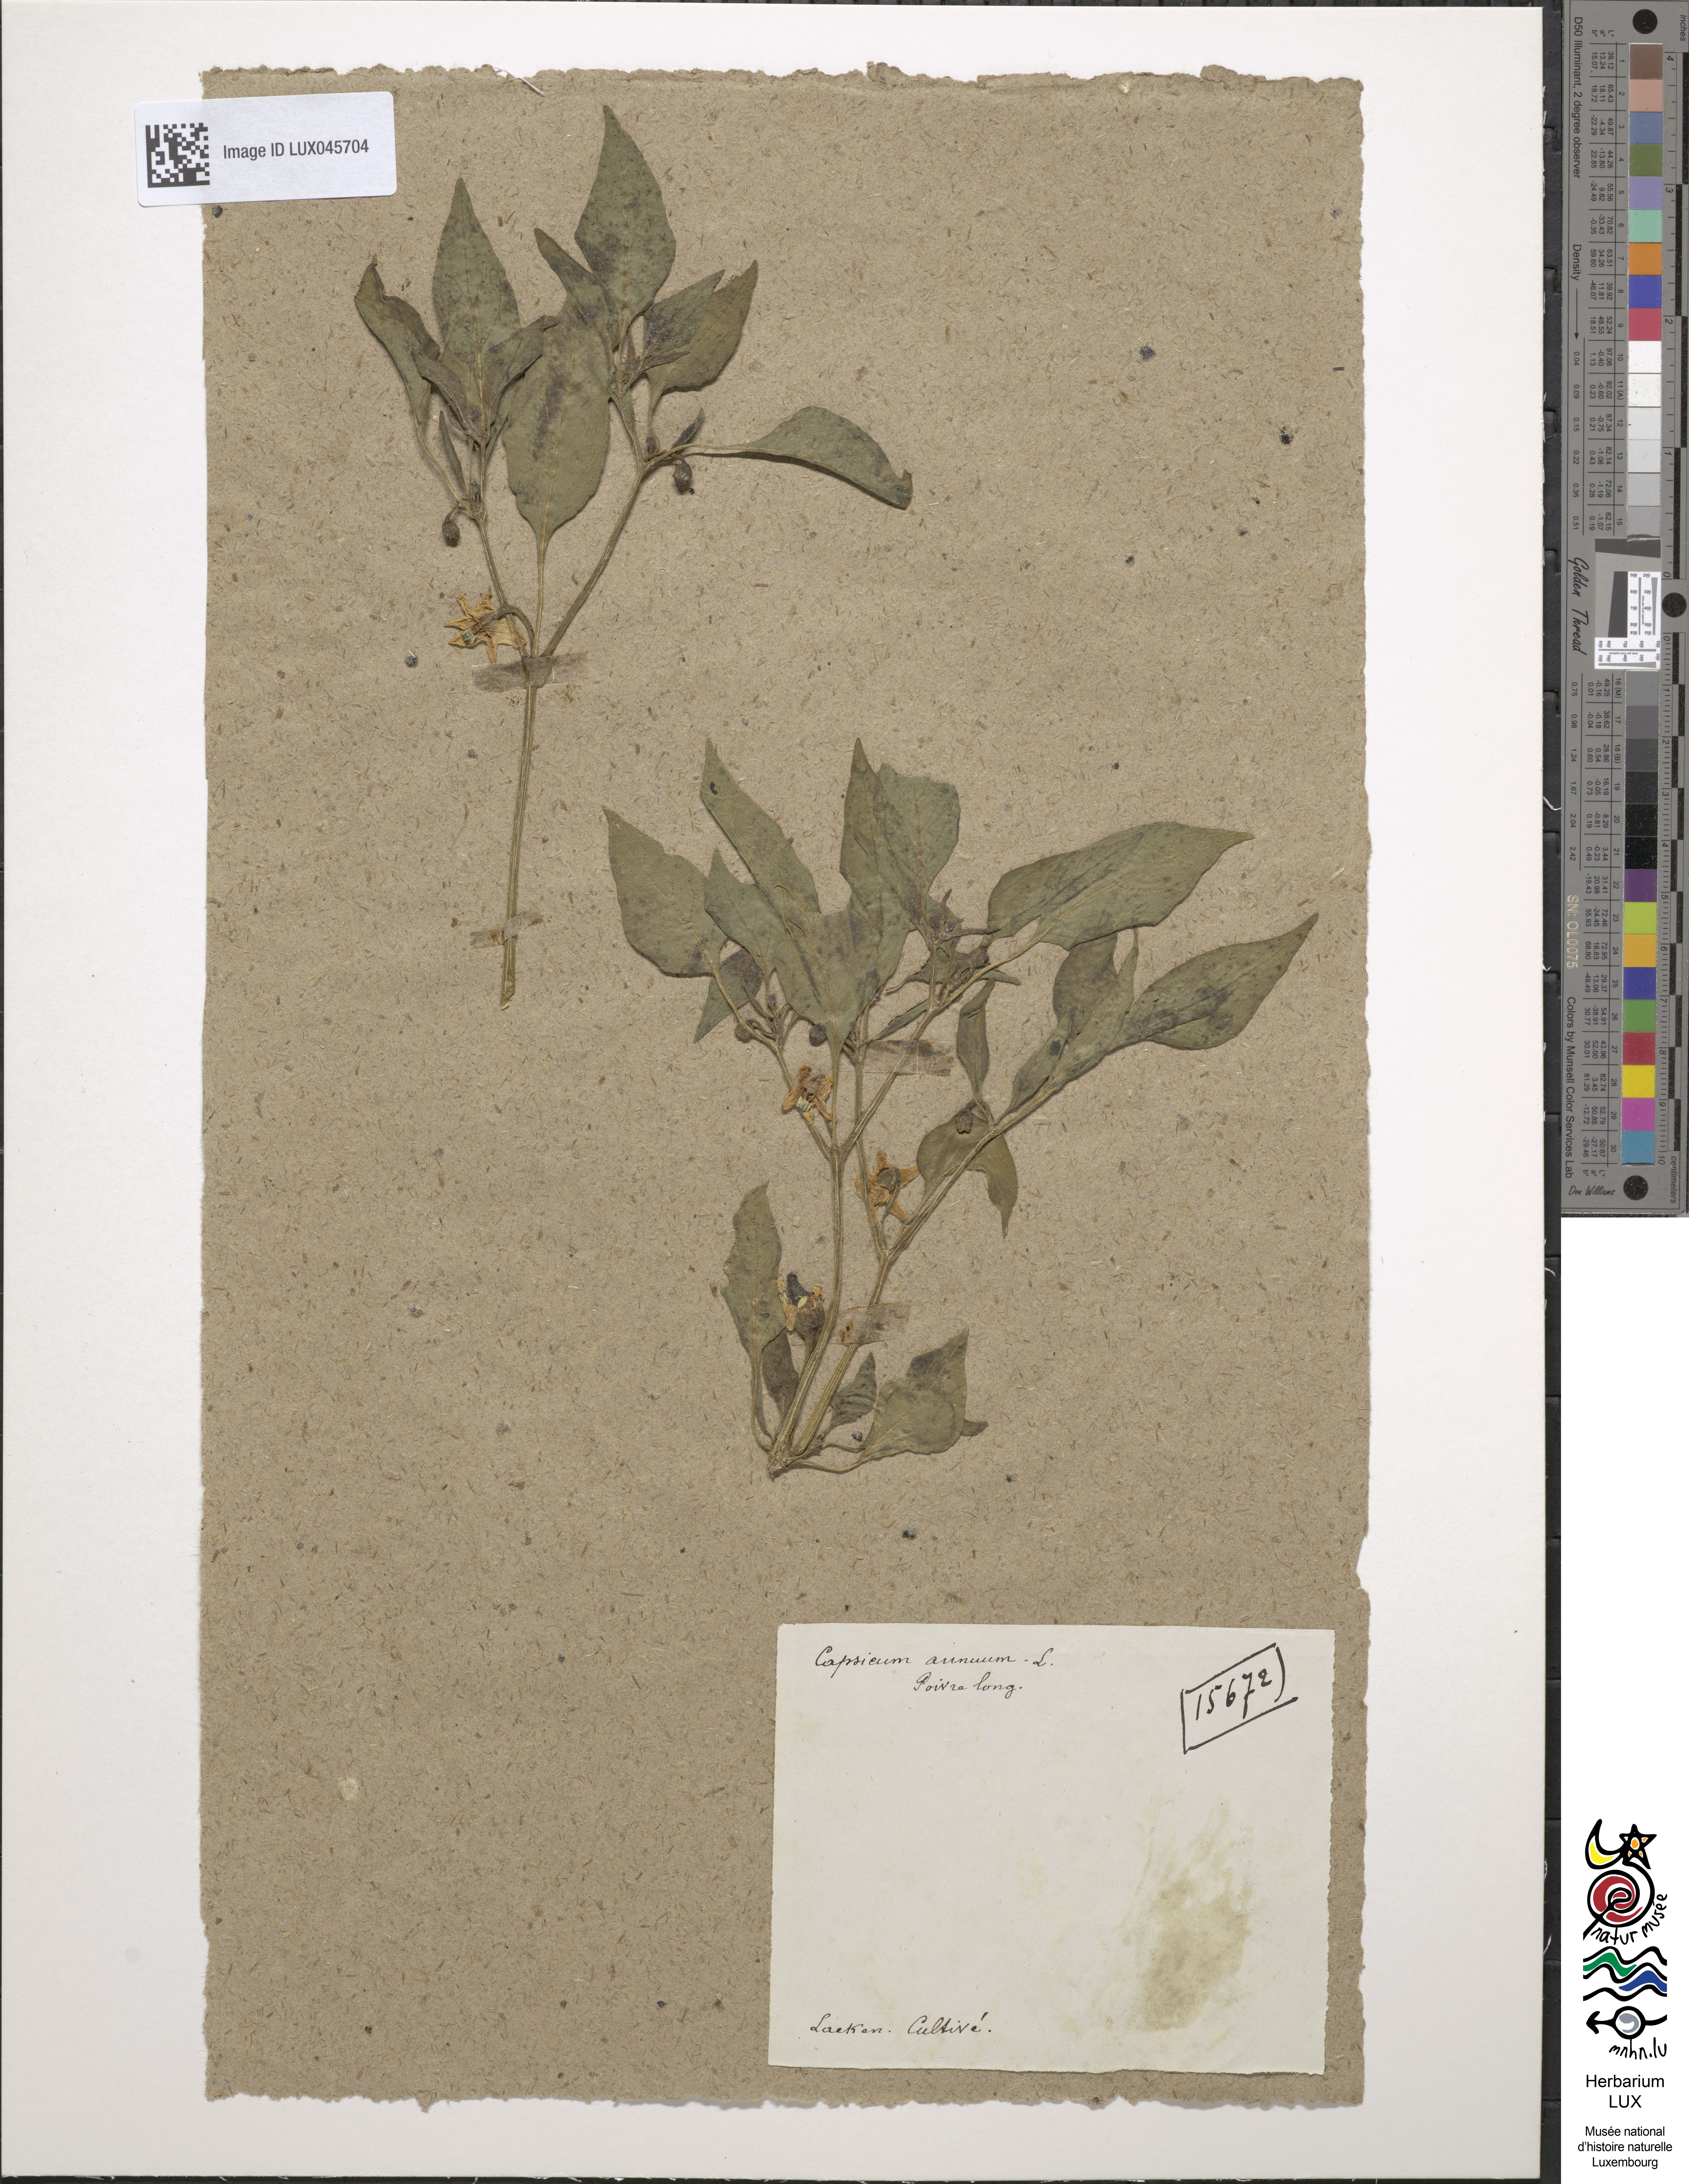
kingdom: Plantae
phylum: Tracheophyta
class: Magnoliopsida
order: Solanales
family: Solanaceae
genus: Capsicum
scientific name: Capsicum annuum
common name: Sweet pepper
